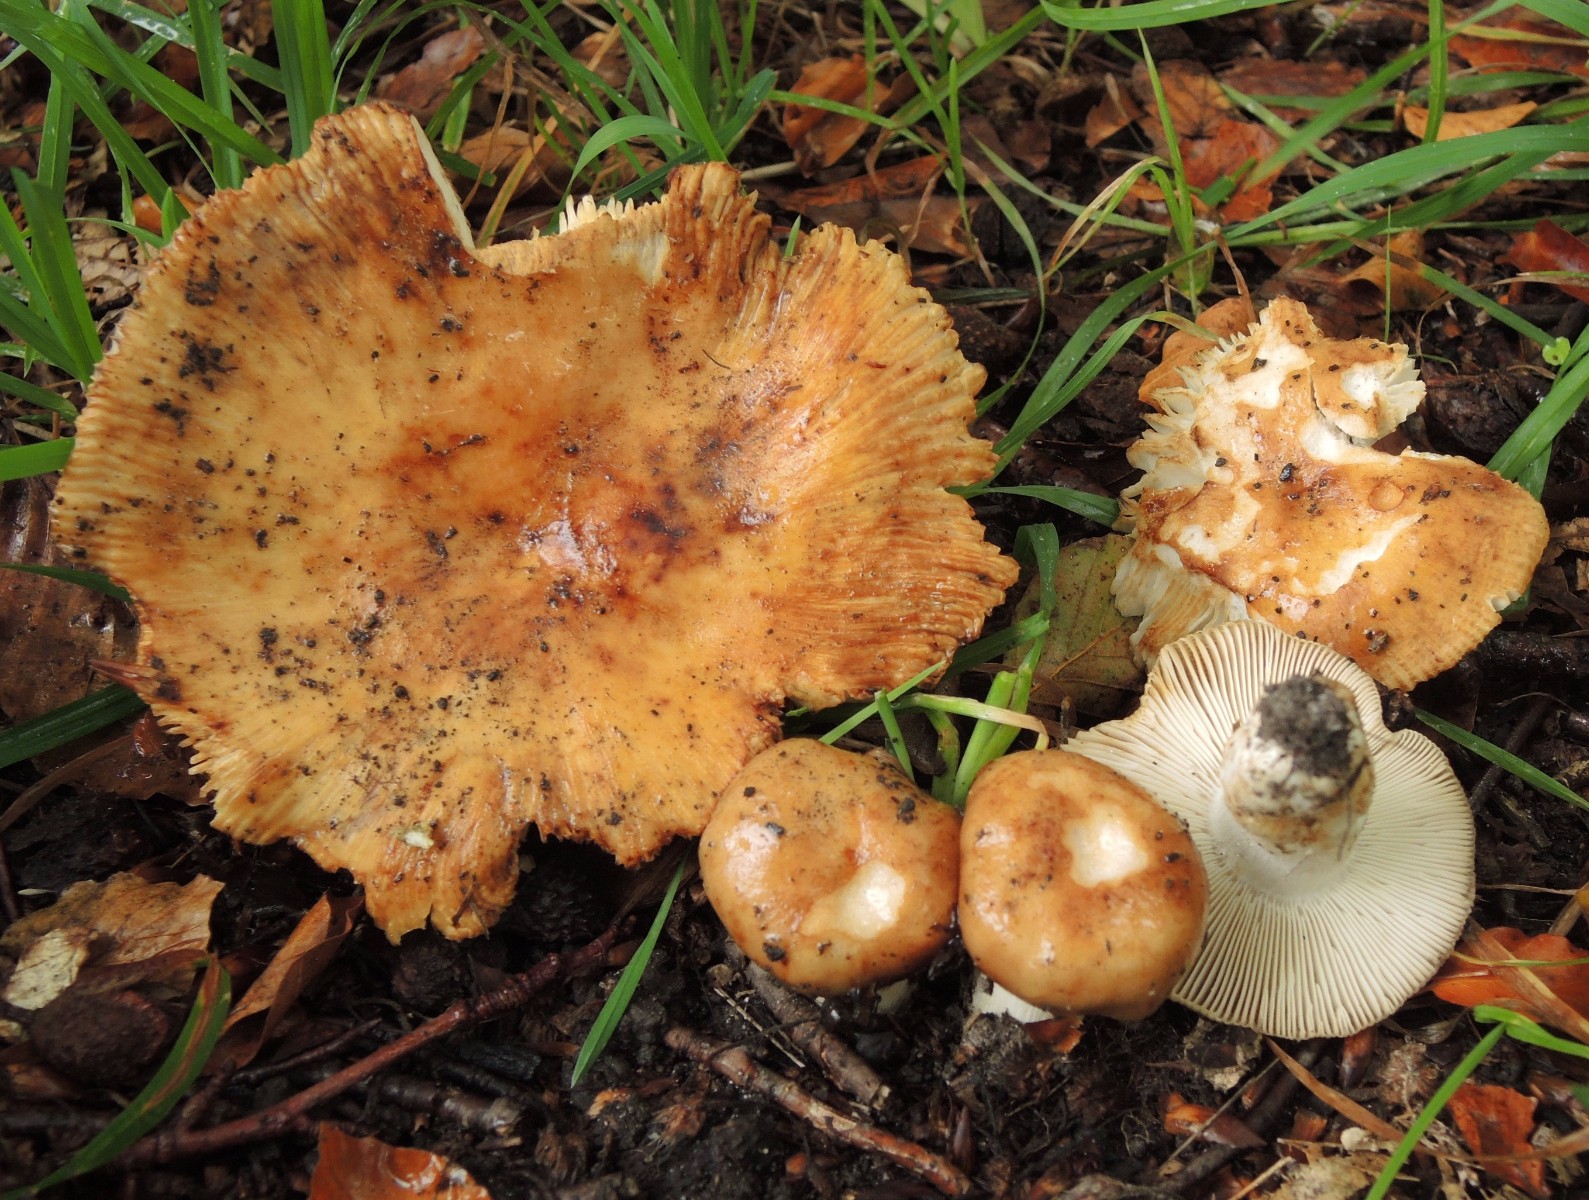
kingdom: Fungi
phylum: Basidiomycota
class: Agaricomycetes
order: Russulales
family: Russulaceae
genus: Russula
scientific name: Russula grata
